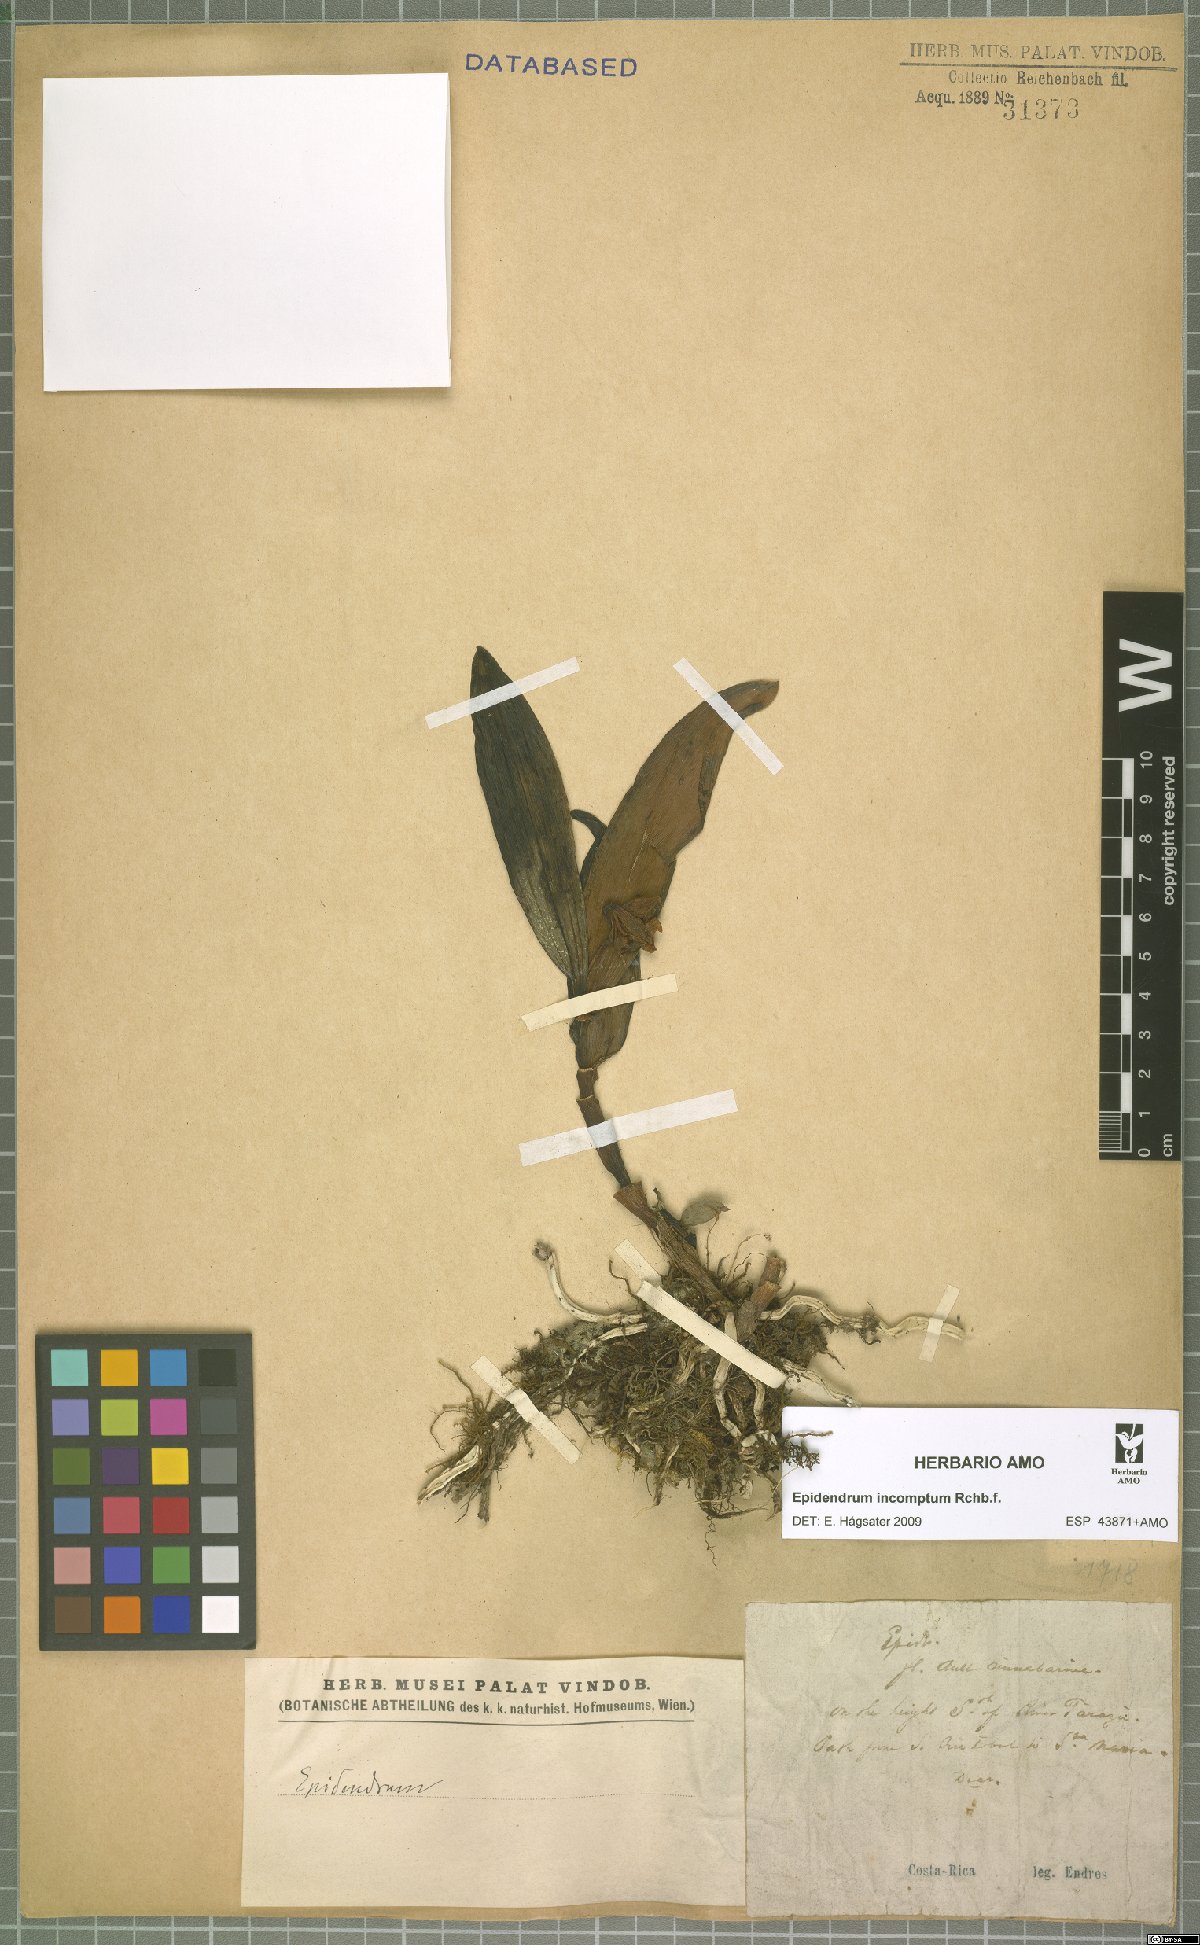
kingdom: Plantae
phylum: Tracheophyta
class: Liliopsida
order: Asparagales
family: Orchidaceae
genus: Epidendrum
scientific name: Epidendrum incomptum
